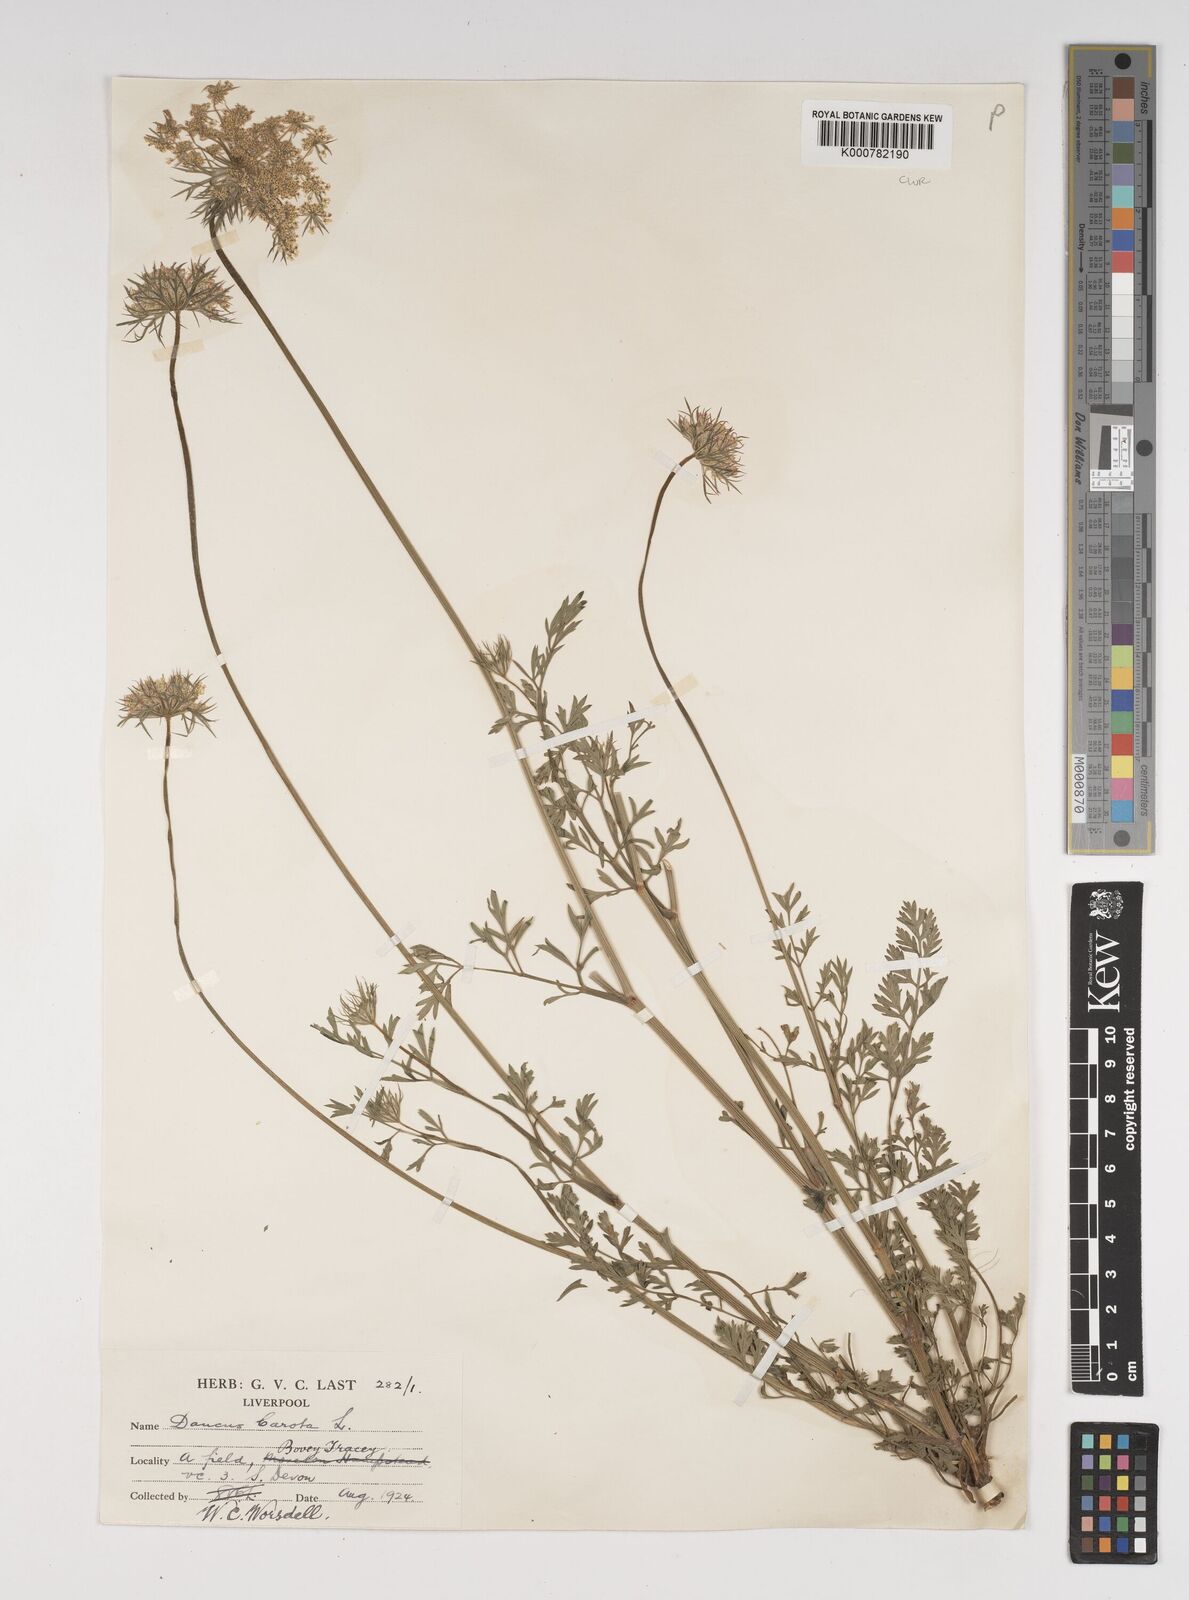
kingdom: Plantae
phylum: Tracheophyta
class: Magnoliopsida
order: Apiales
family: Apiaceae
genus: Daucus
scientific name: Daucus carota
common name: Wild carrot
